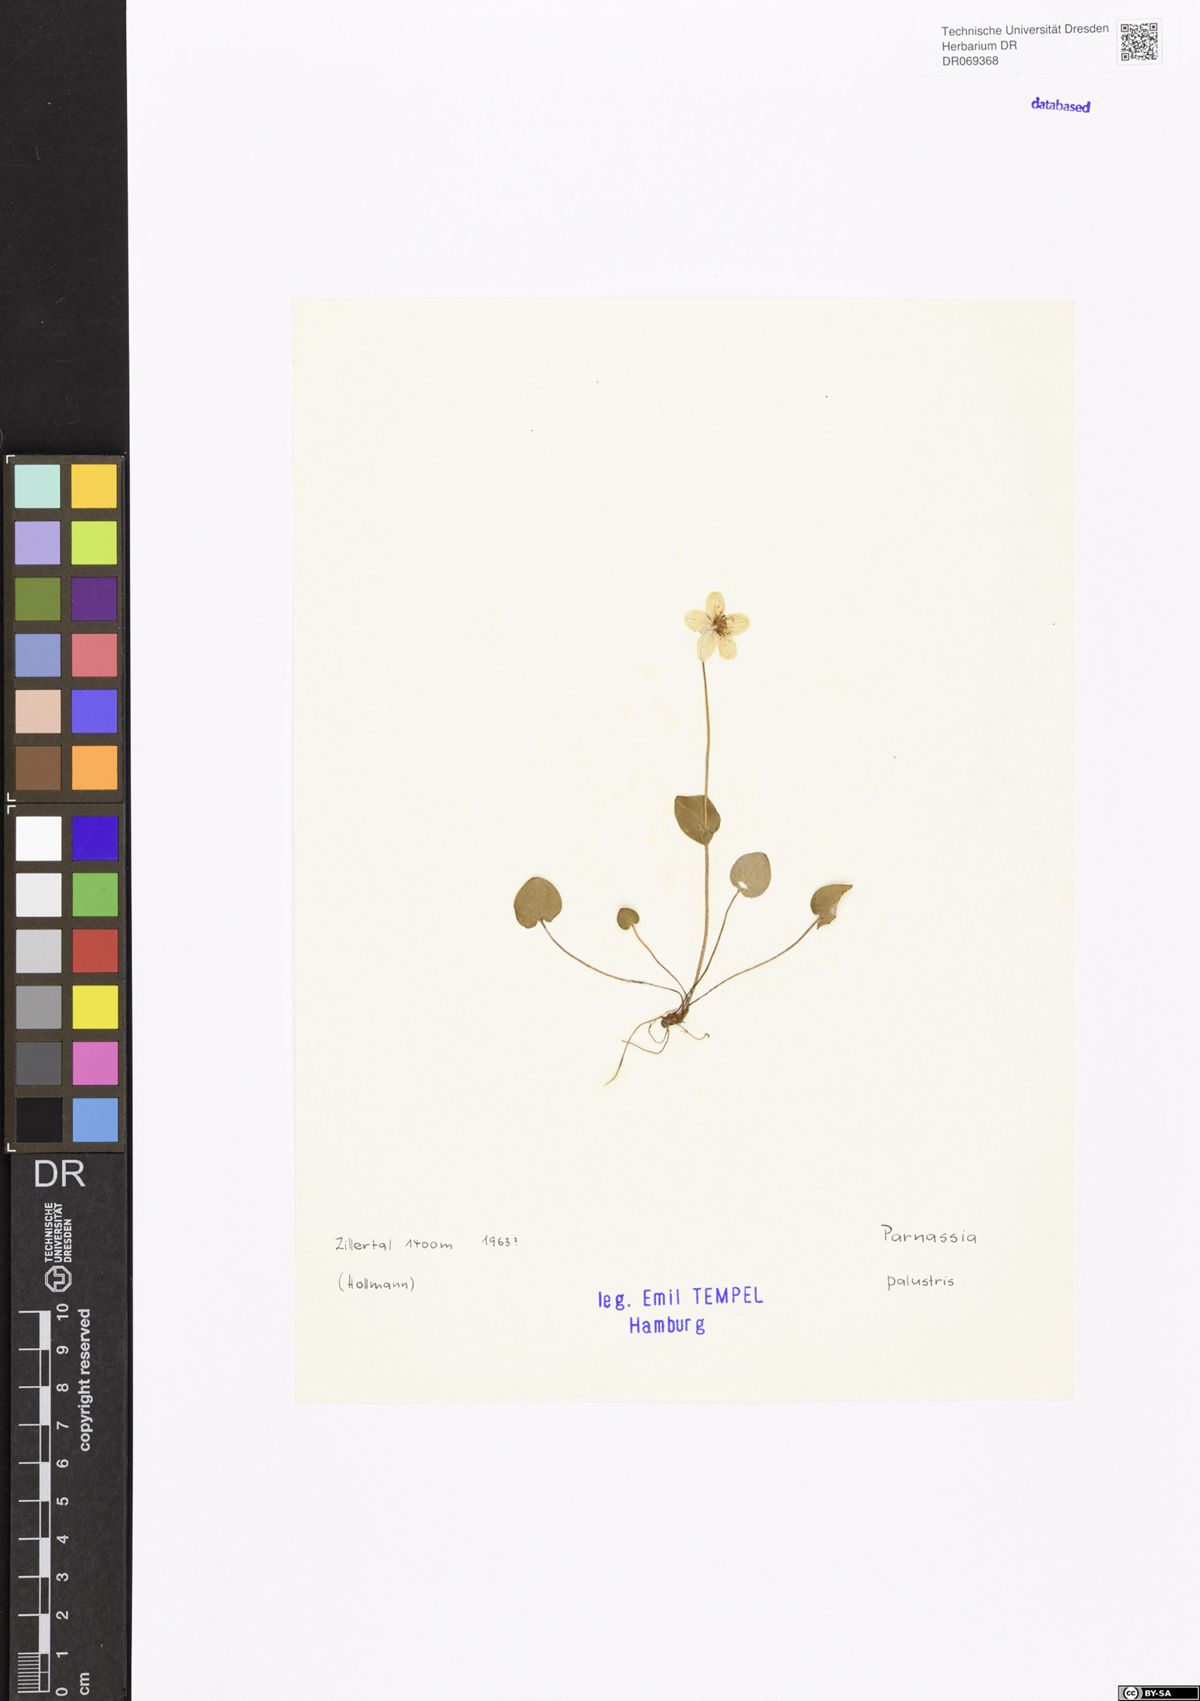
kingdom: Plantae
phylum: Tracheophyta
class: Magnoliopsida
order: Celastrales
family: Parnassiaceae
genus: Parnassia
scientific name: Parnassia palustris
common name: Grass-of-parnassus
